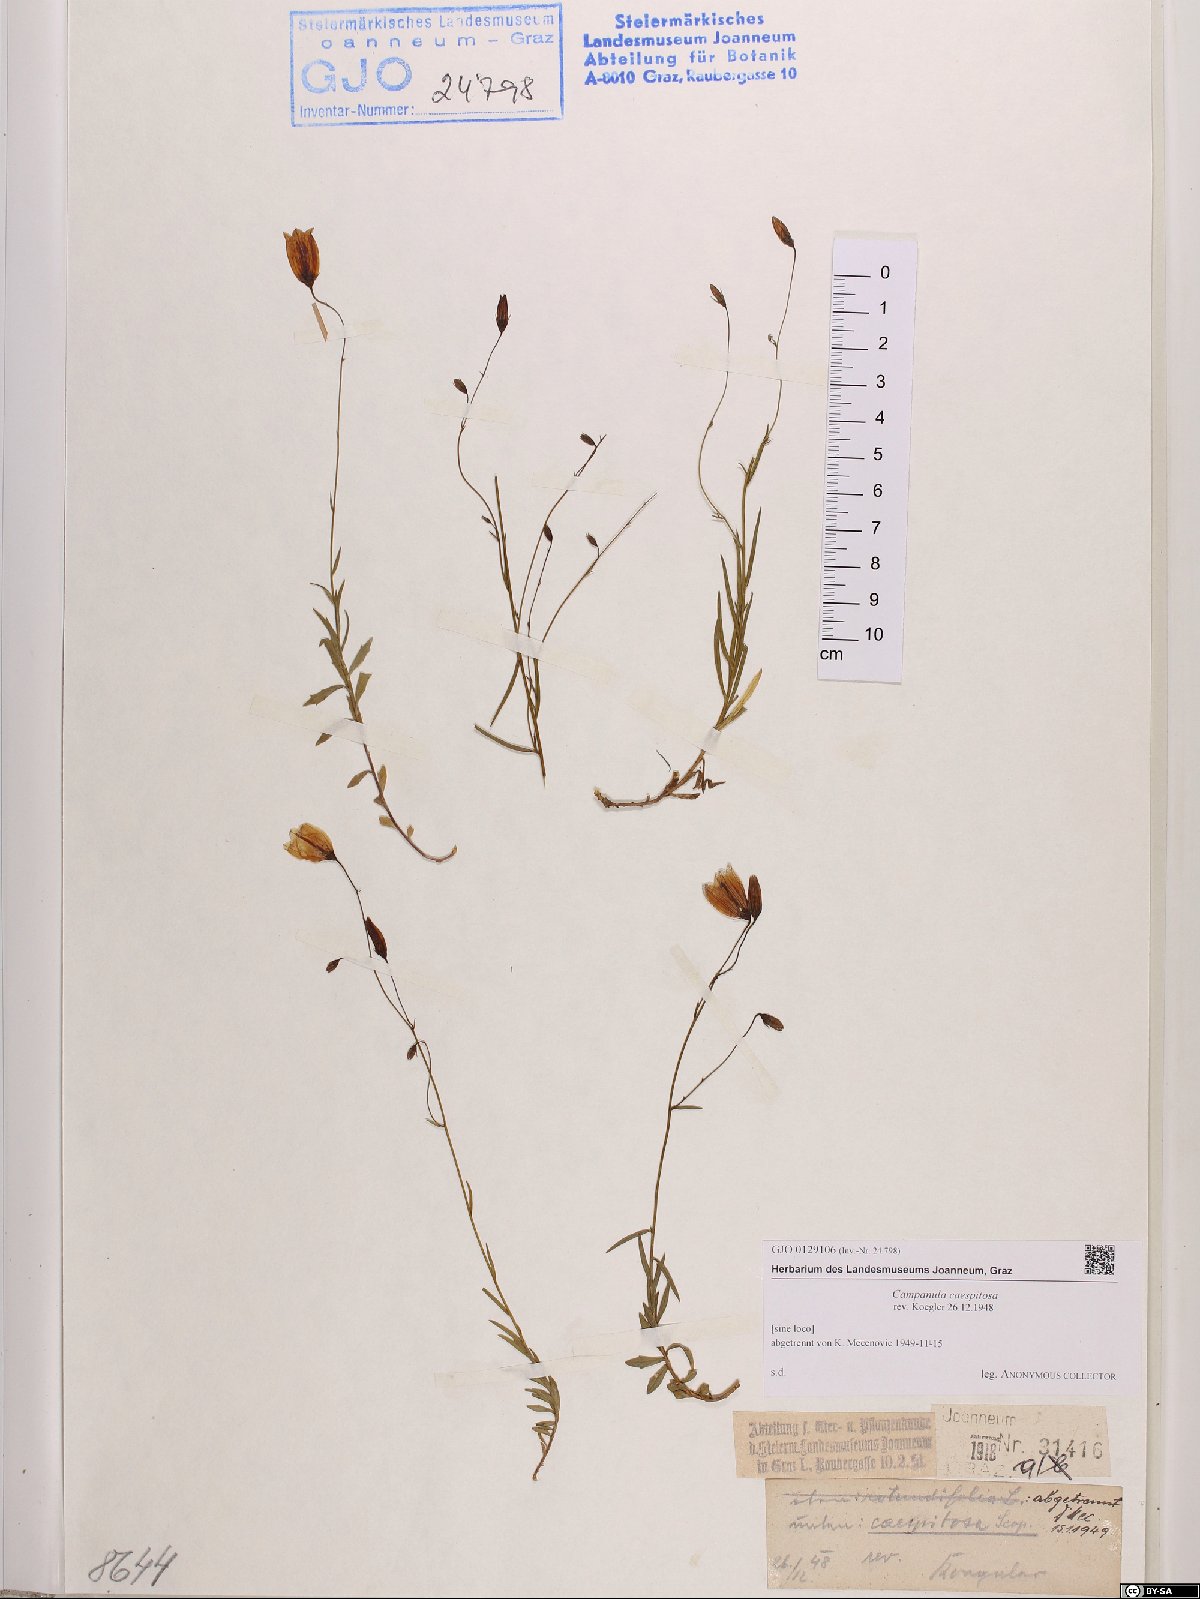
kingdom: Plantae
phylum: Tracheophyta
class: Magnoliopsida
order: Asterales
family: Campanulaceae
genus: Campanula
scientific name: Campanula caespitosa
